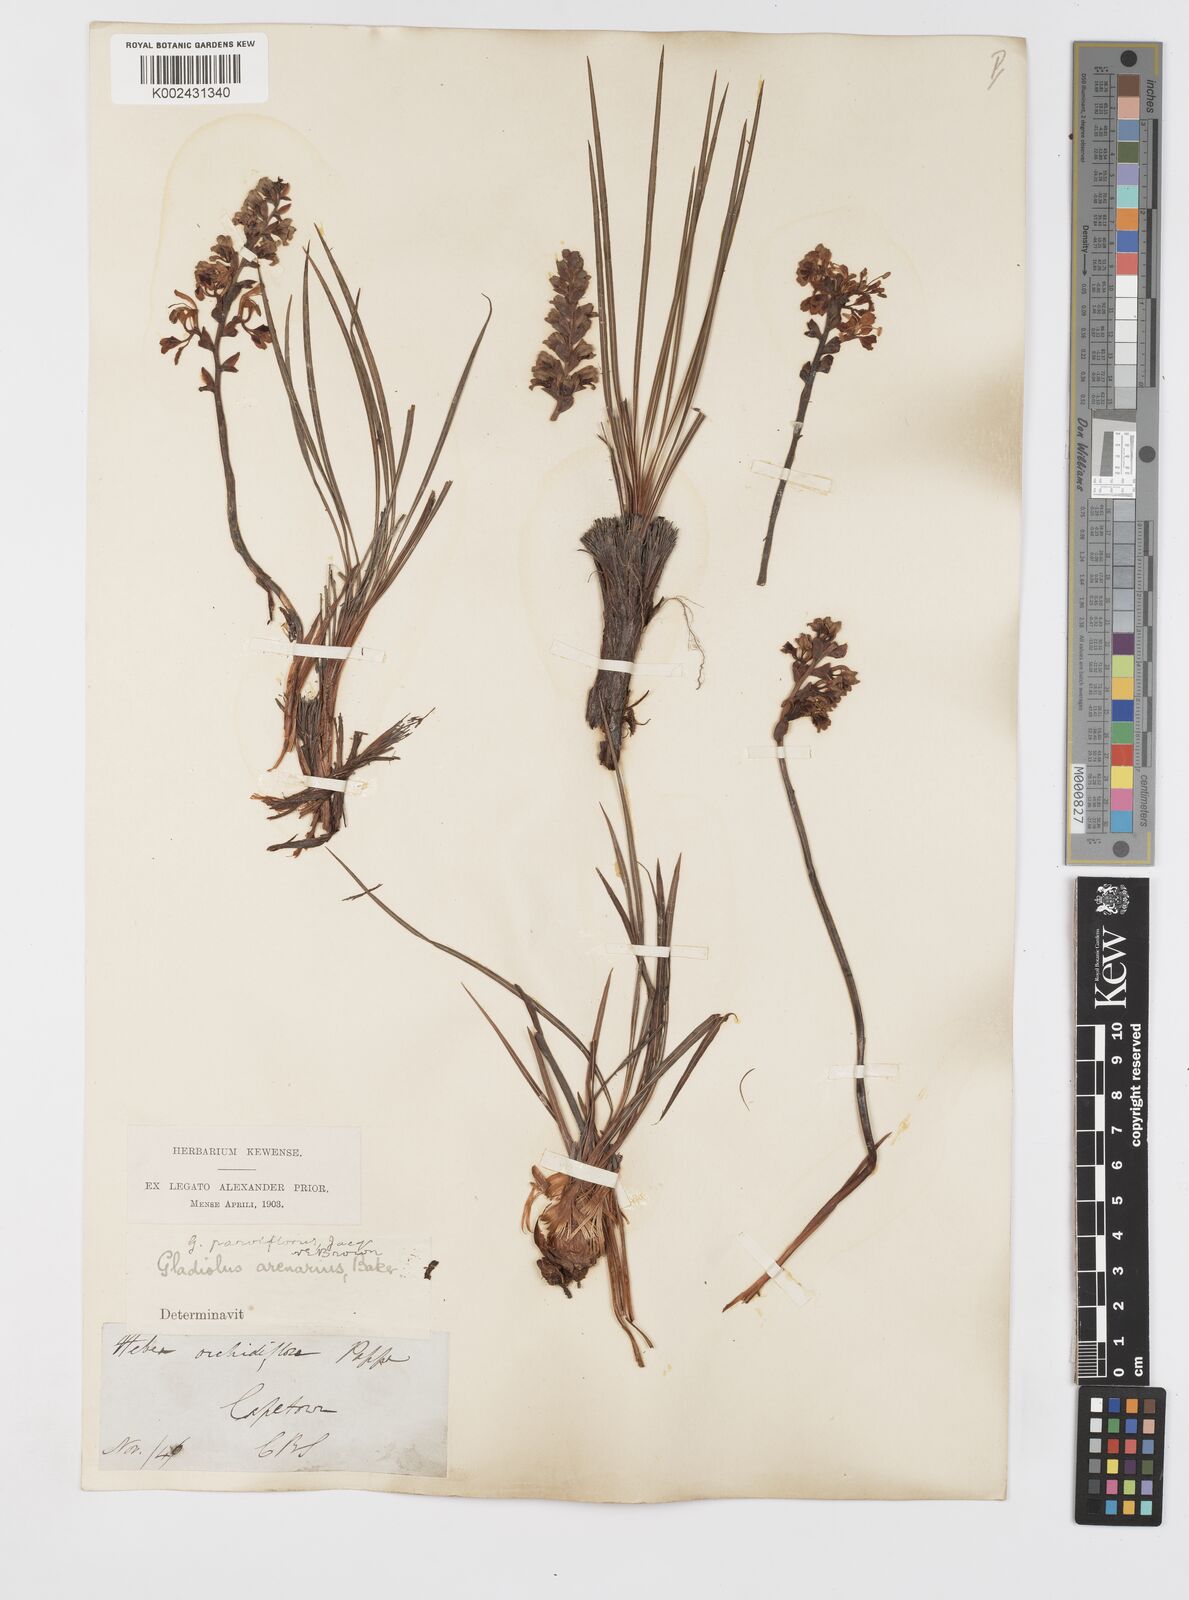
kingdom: Plantae
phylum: Tracheophyta
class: Liliopsida
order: Asparagales
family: Iridaceae
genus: Tritoniopsis
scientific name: Tritoniopsis parviflora
